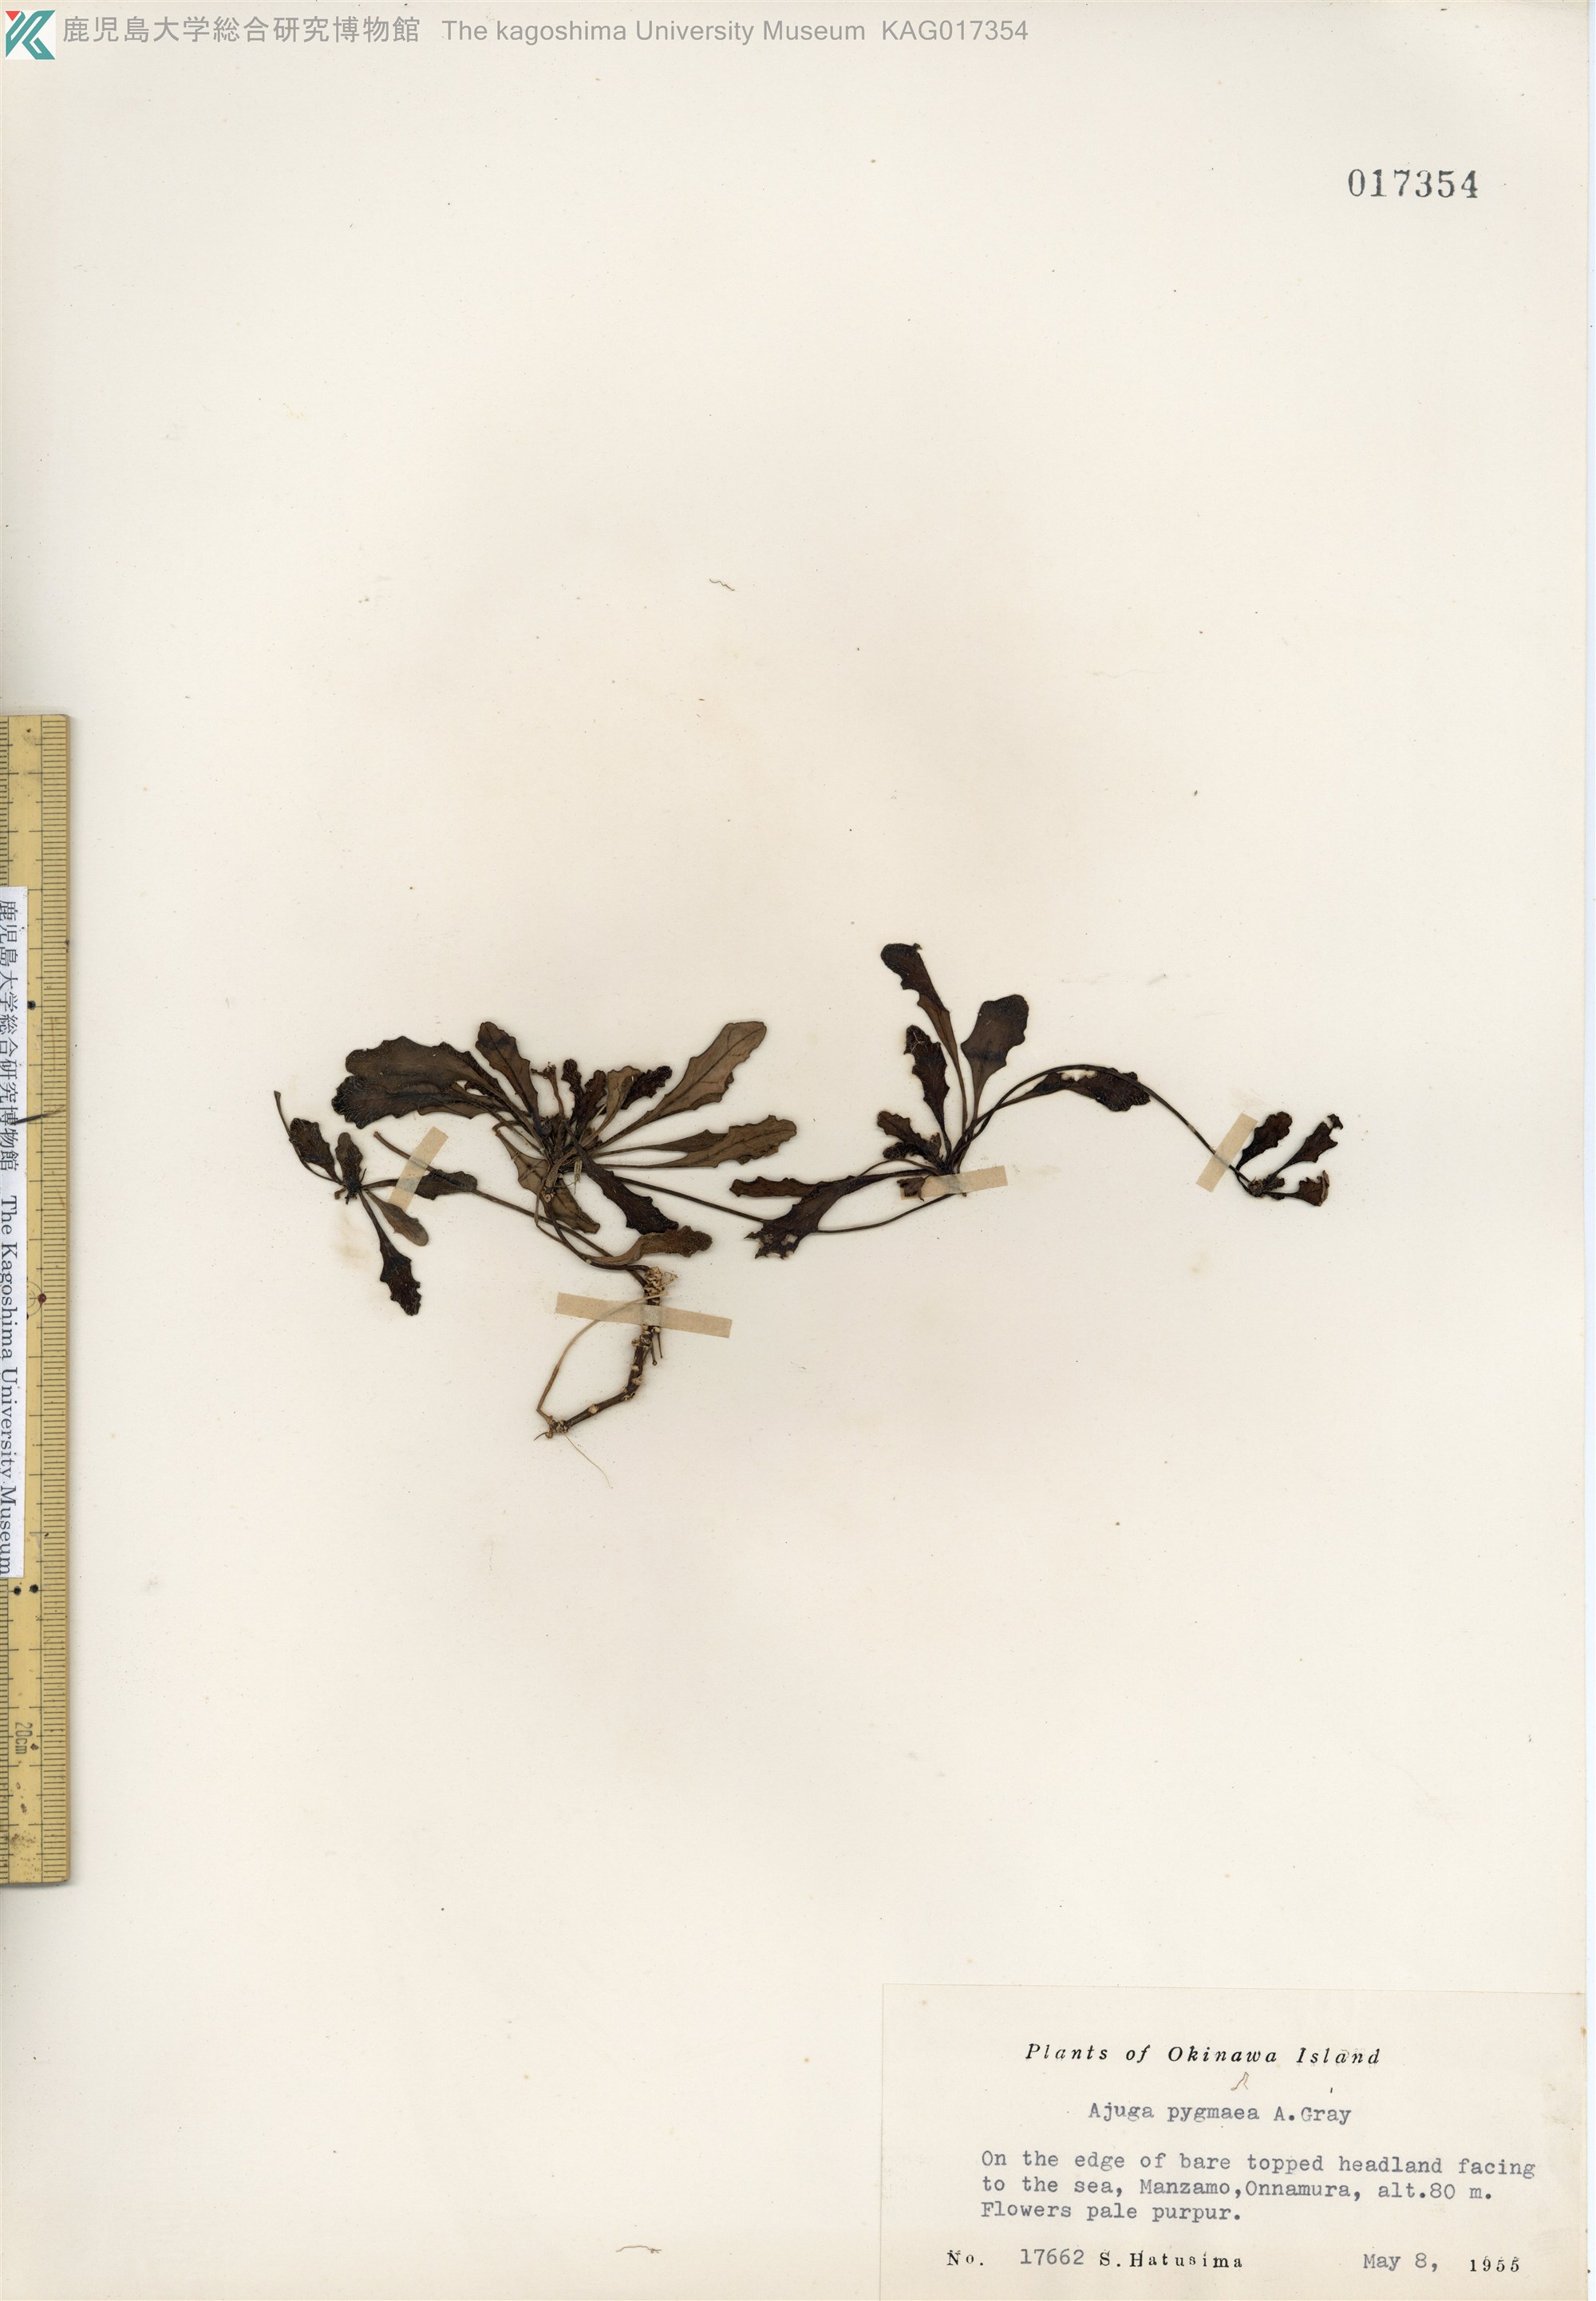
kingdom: Plantae
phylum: Tracheophyta
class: Magnoliopsida
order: Lamiales
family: Lamiaceae
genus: Ajuga
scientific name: Ajuga pygmaea
